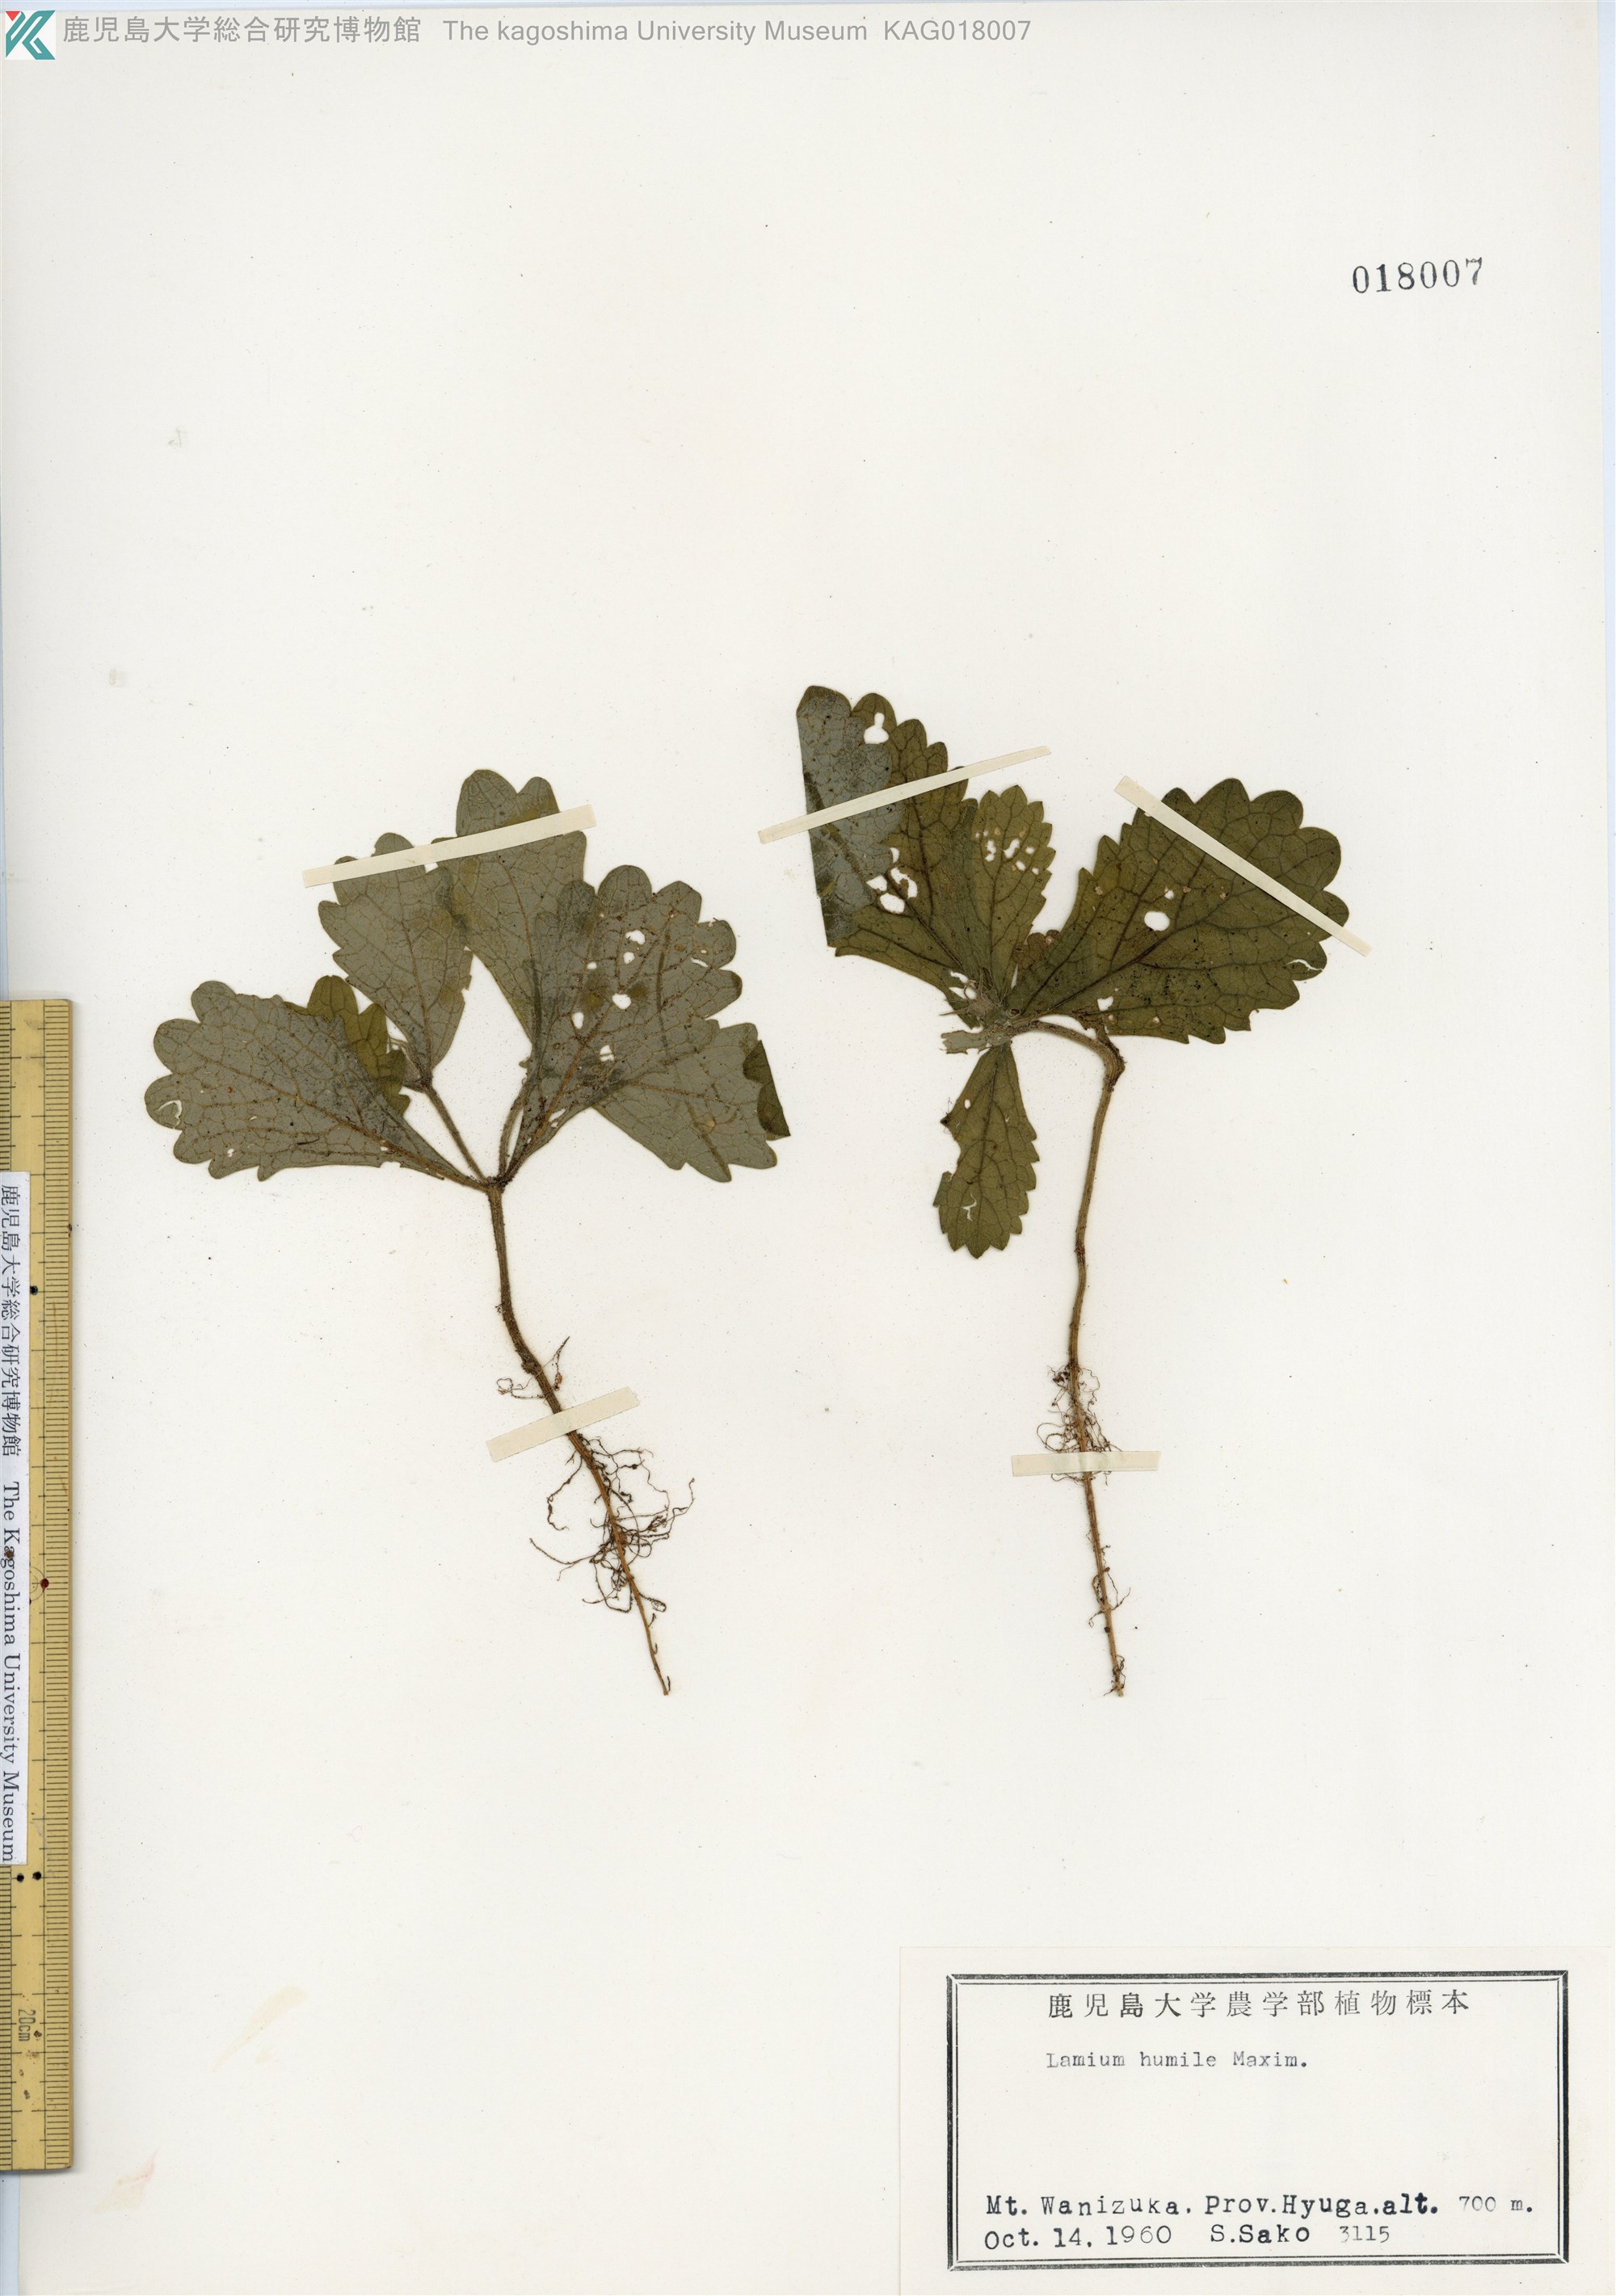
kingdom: Plantae
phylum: Tracheophyta
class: Magnoliopsida
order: Lamiales
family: Lamiaceae
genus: Ajugoides
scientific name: Ajugoides humilis
